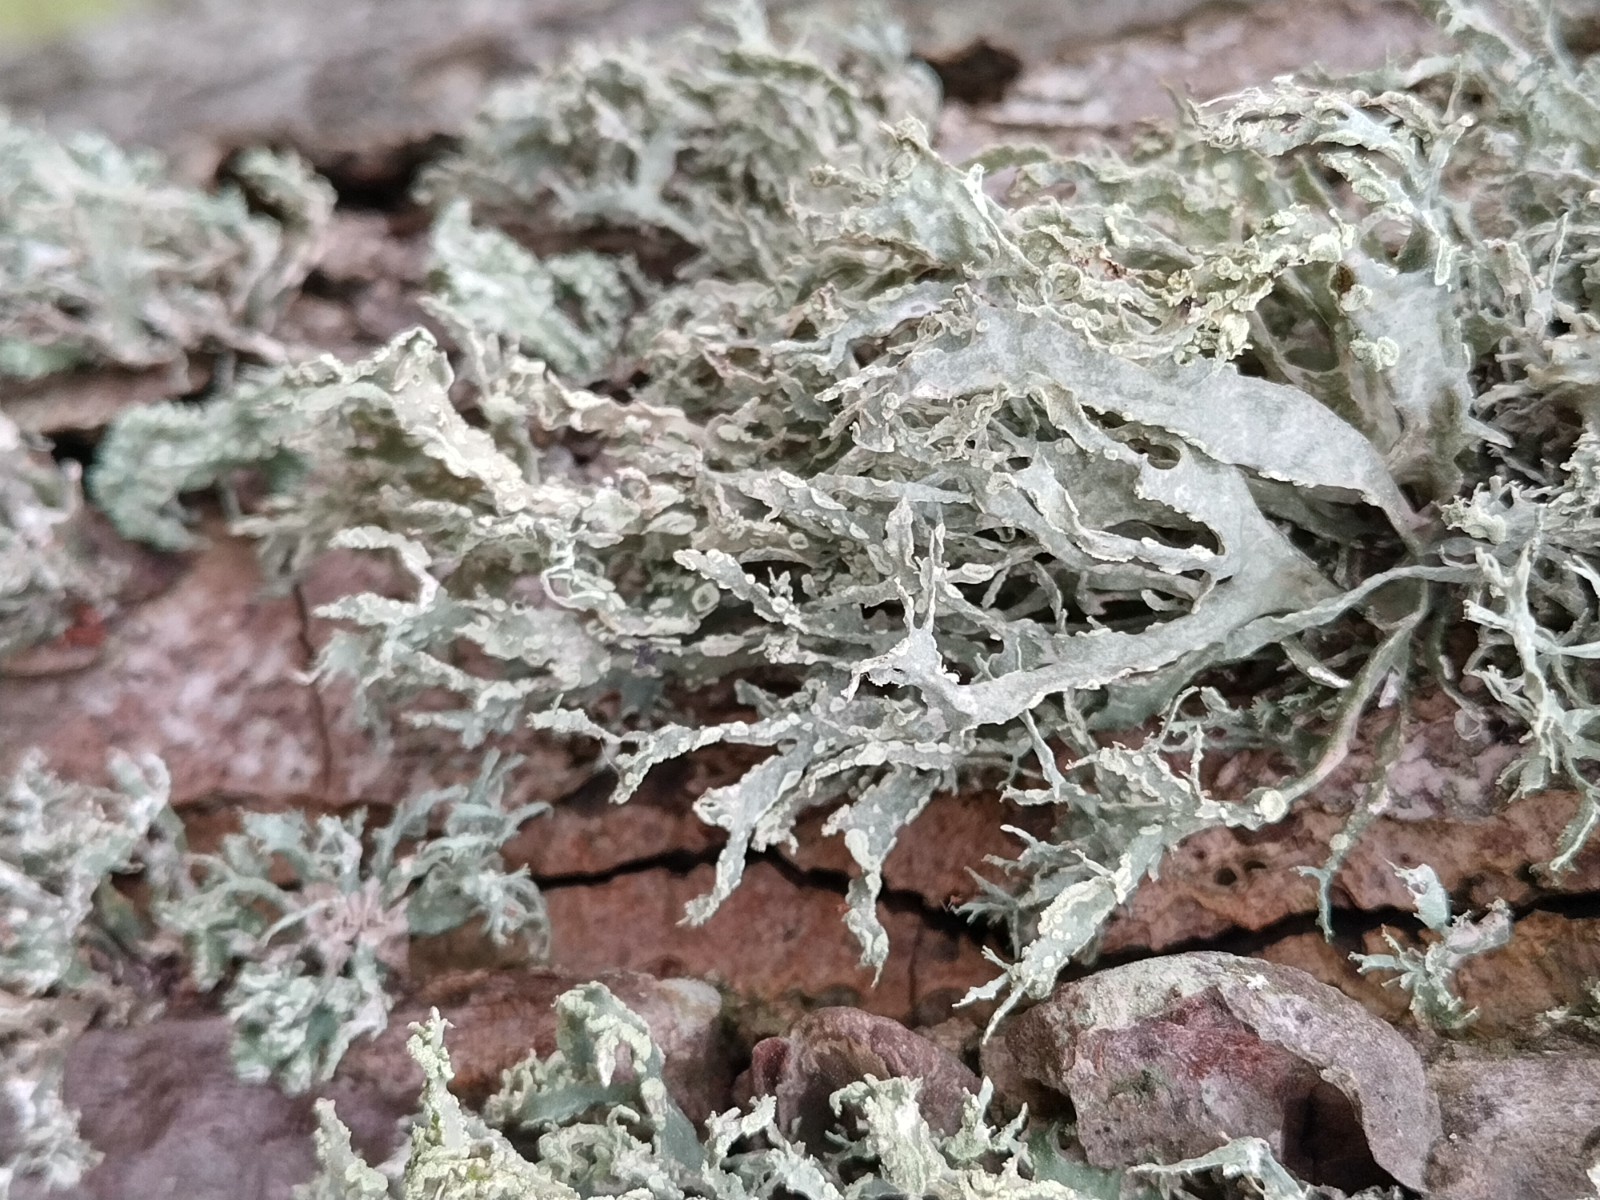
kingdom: Fungi
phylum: Ascomycota
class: Lecanoromycetes
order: Lecanorales
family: Ramalinaceae
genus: Ramalina
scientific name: Ramalina farinacea
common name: melet grenlav
